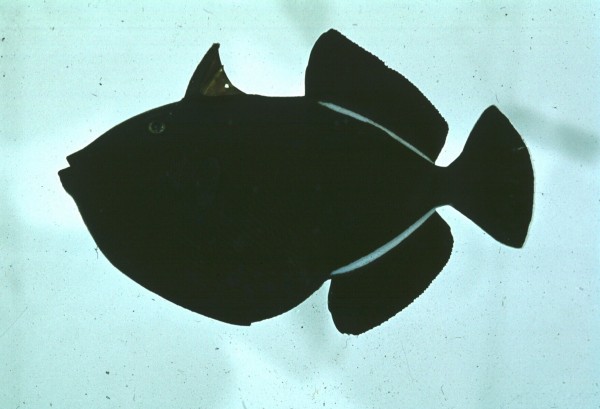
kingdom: Animalia
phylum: Chordata
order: Tetraodontiformes
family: Balistidae
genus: Melichthys
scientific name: Melichthys niger
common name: Black durgon
